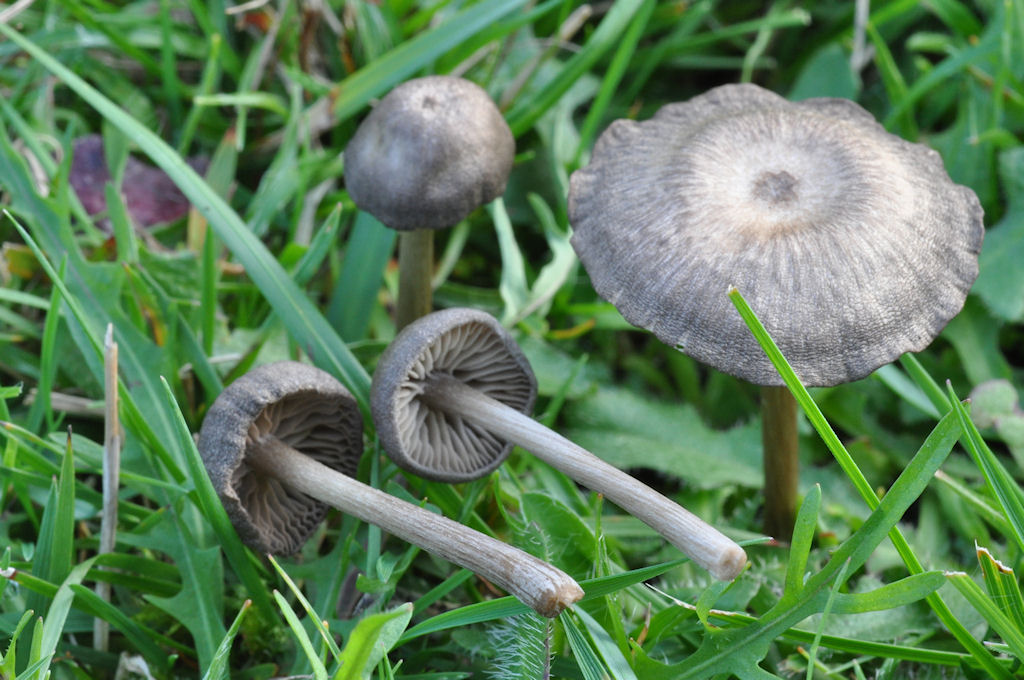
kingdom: Fungi
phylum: Basidiomycota
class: Agaricomycetes
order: Agaricales
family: Entolomataceae
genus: Entoloma
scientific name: Entoloma cuneatum
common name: dunstokket rødblad
